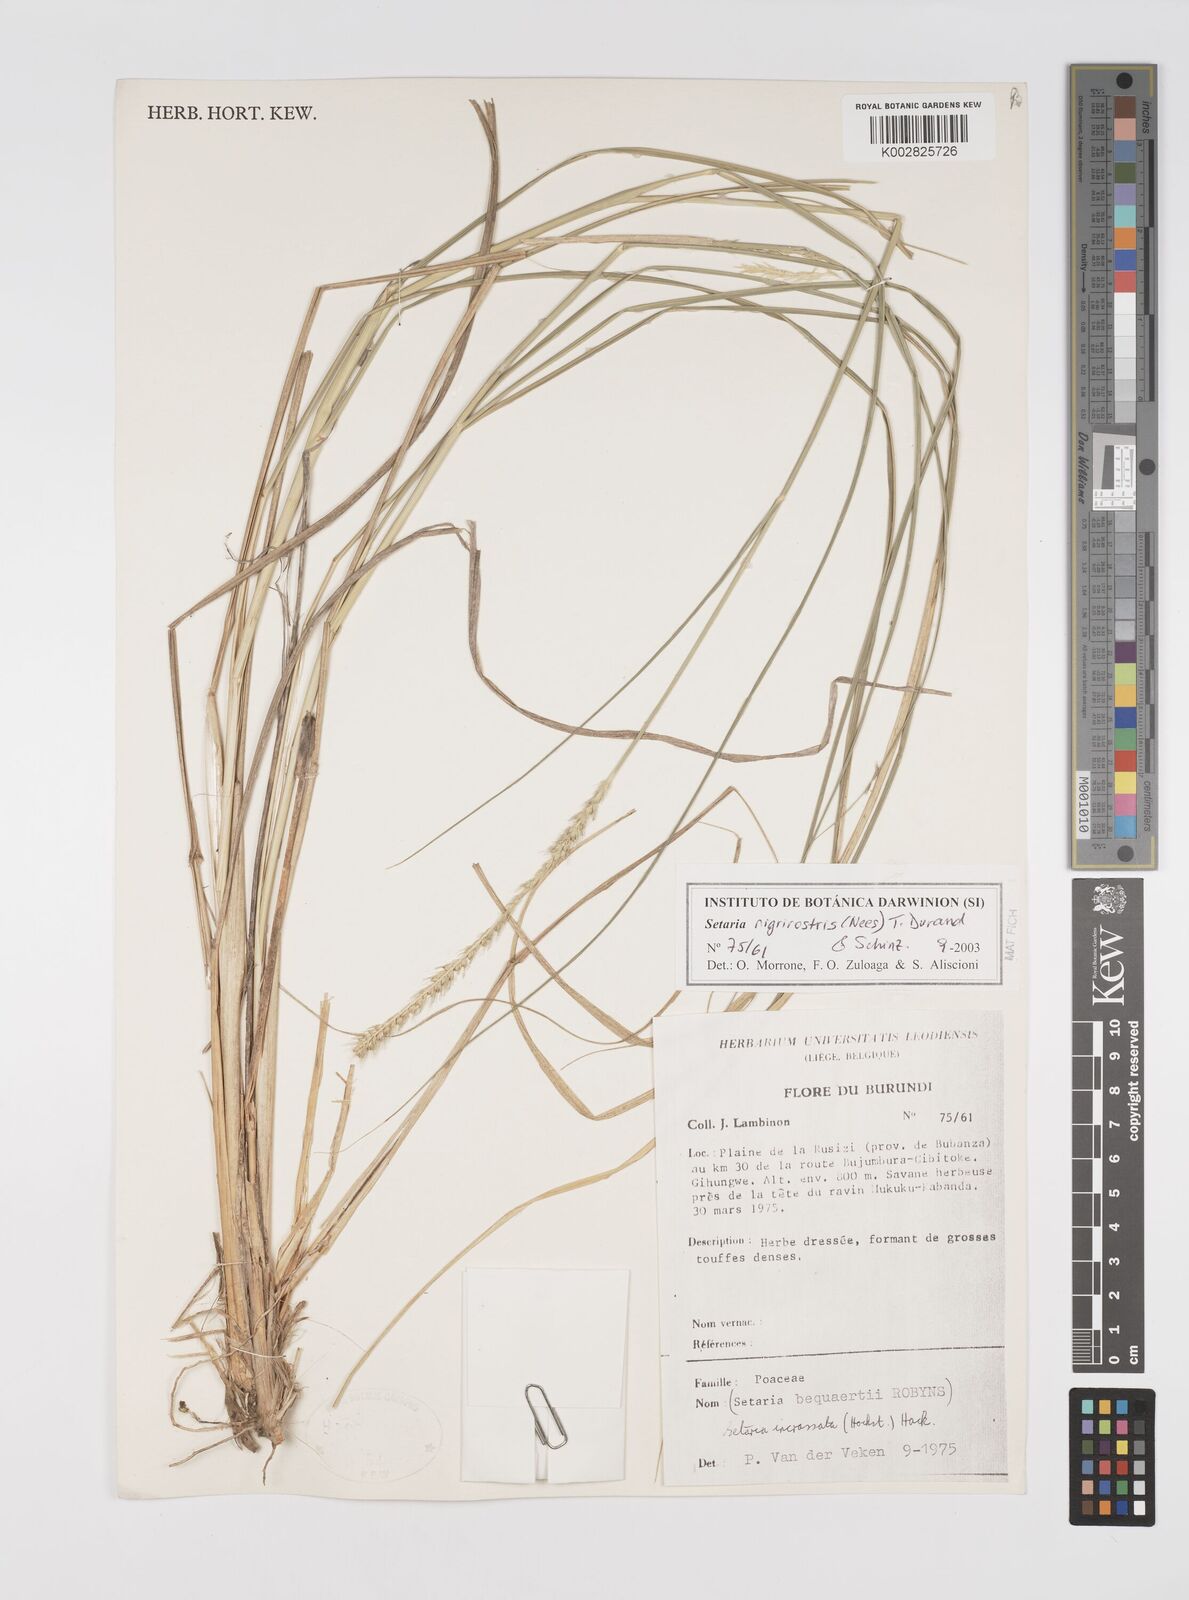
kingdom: Plantae
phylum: Tracheophyta
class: Liliopsida
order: Poales
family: Poaceae
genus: Setaria
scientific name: Setaria nigrirostris
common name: Black bristlegrass
